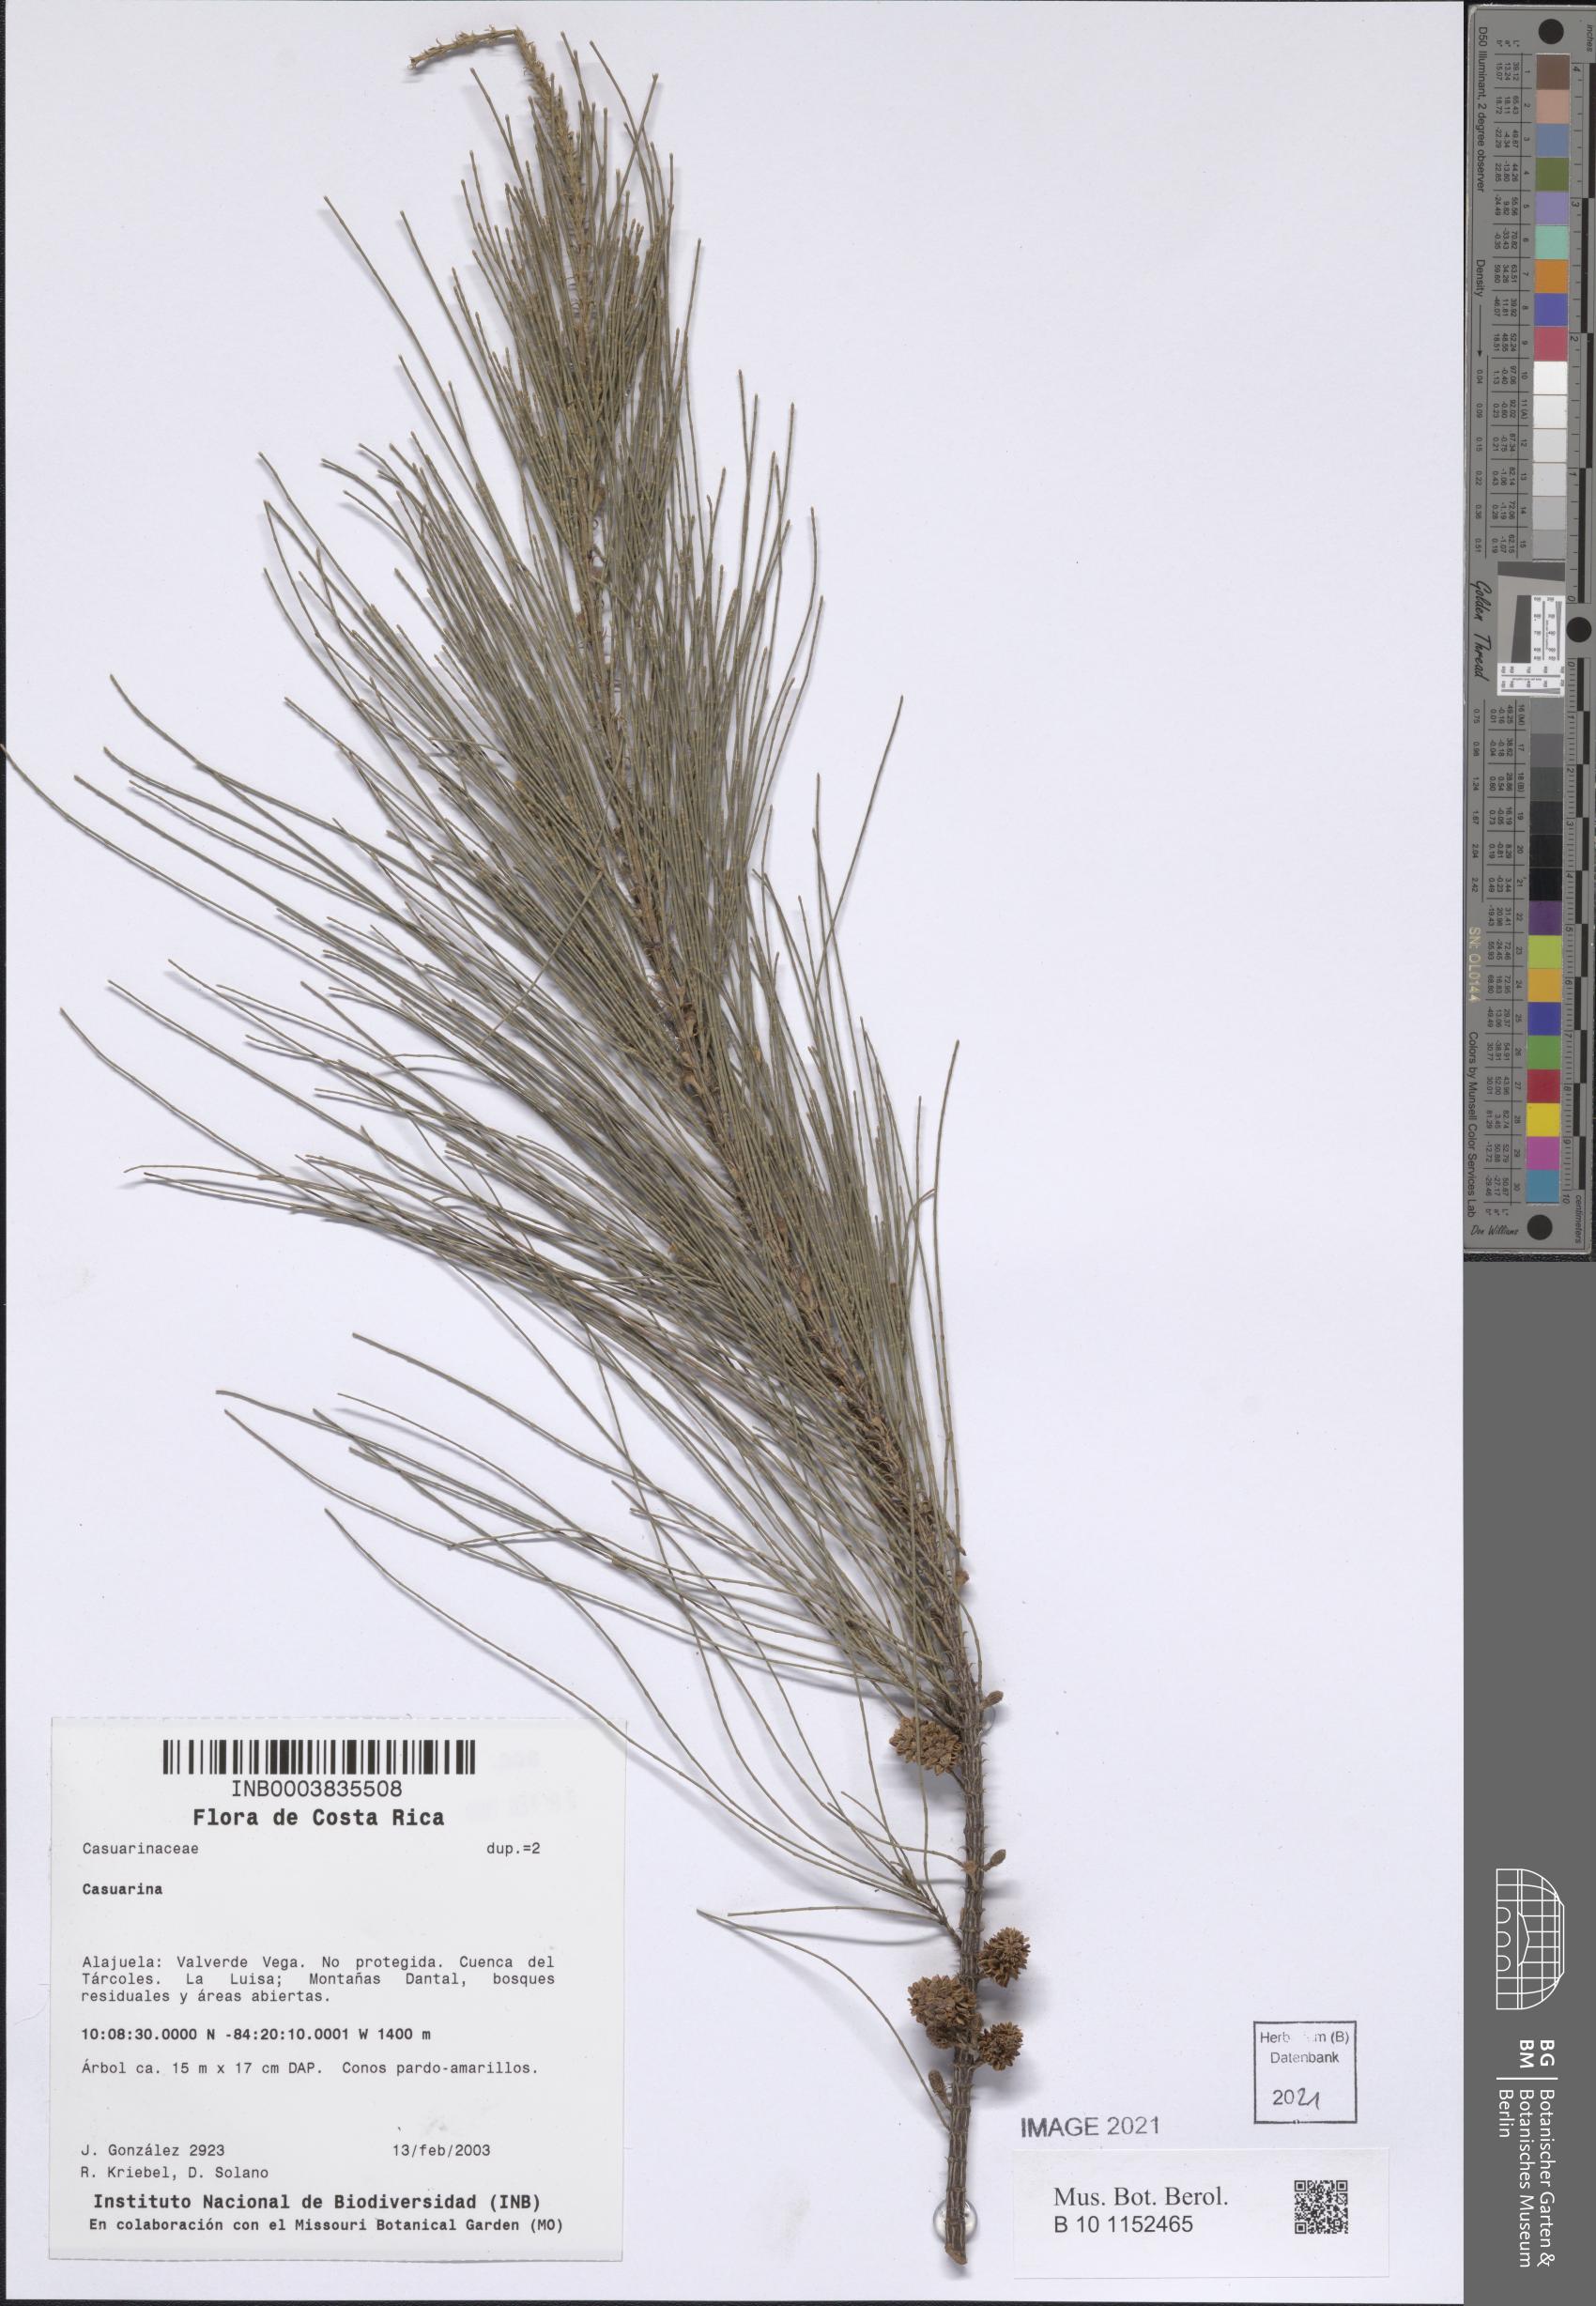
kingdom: Plantae
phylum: Tracheophyta
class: Magnoliopsida
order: Fagales
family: Casuarinaceae
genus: Casuarina
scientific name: Casuarina
